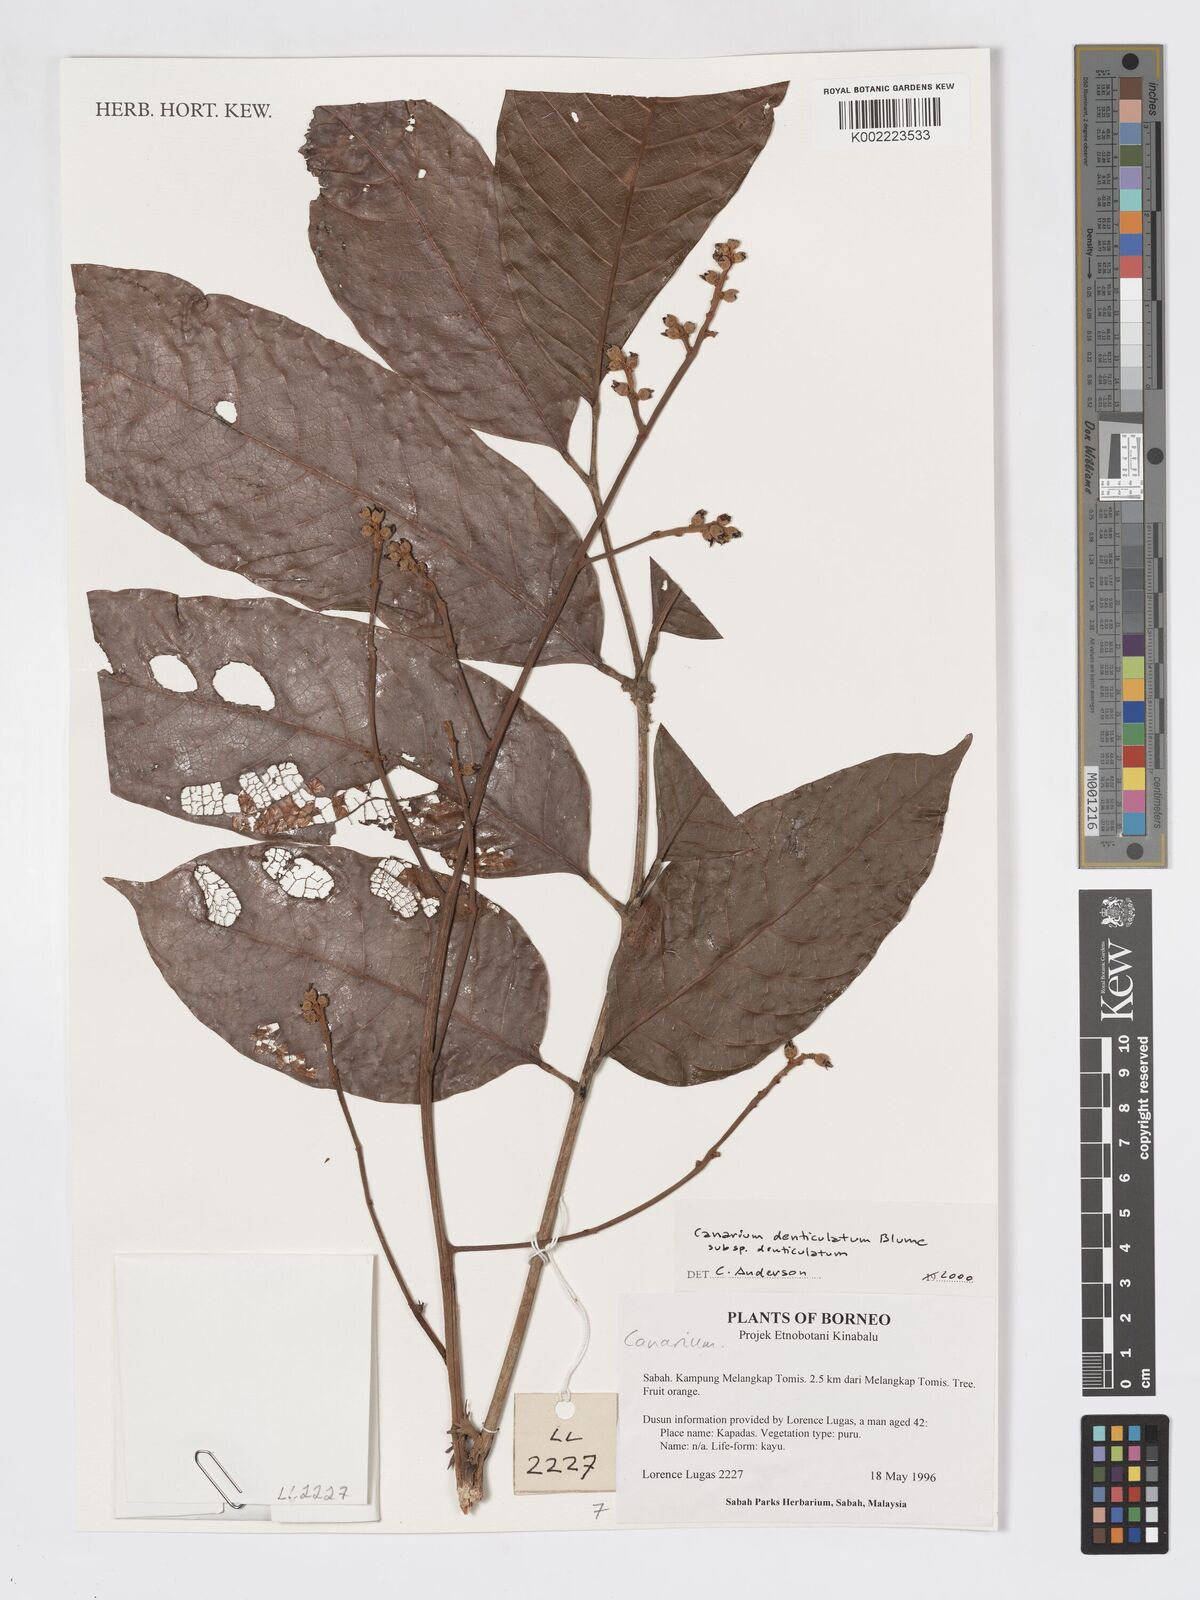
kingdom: Plantae
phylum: Tracheophyta
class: Magnoliopsida
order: Sapindales
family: Burseraceae
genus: Canarium
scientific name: Canarium denticulatum
